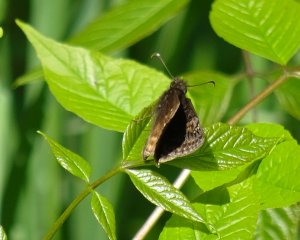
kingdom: Animalia
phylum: Arthropoda
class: Insecta
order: Lepidoptera
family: Hesperiidae
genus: Erynnis
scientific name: Erynnis
